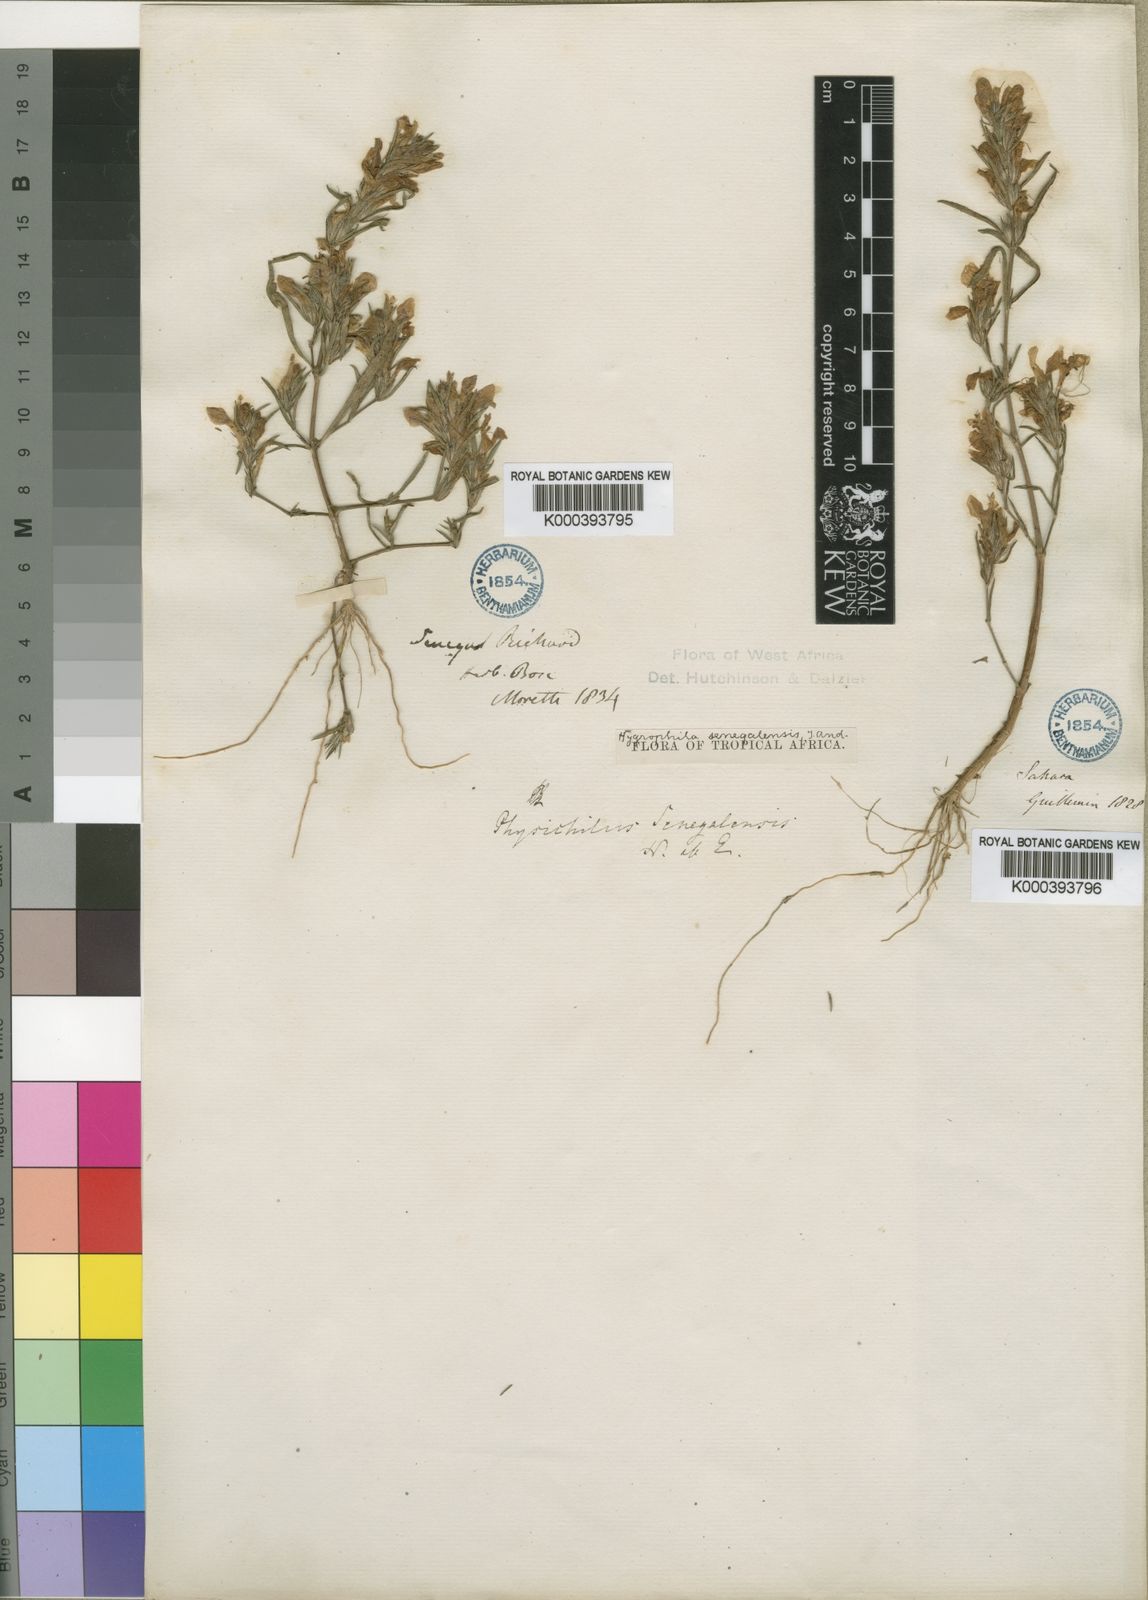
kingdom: Plantae
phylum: Tracheophyta
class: Magnoliopsida
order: Lamiales
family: Acanthaceae
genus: Hygrophila
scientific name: Hygrophila micrantha
